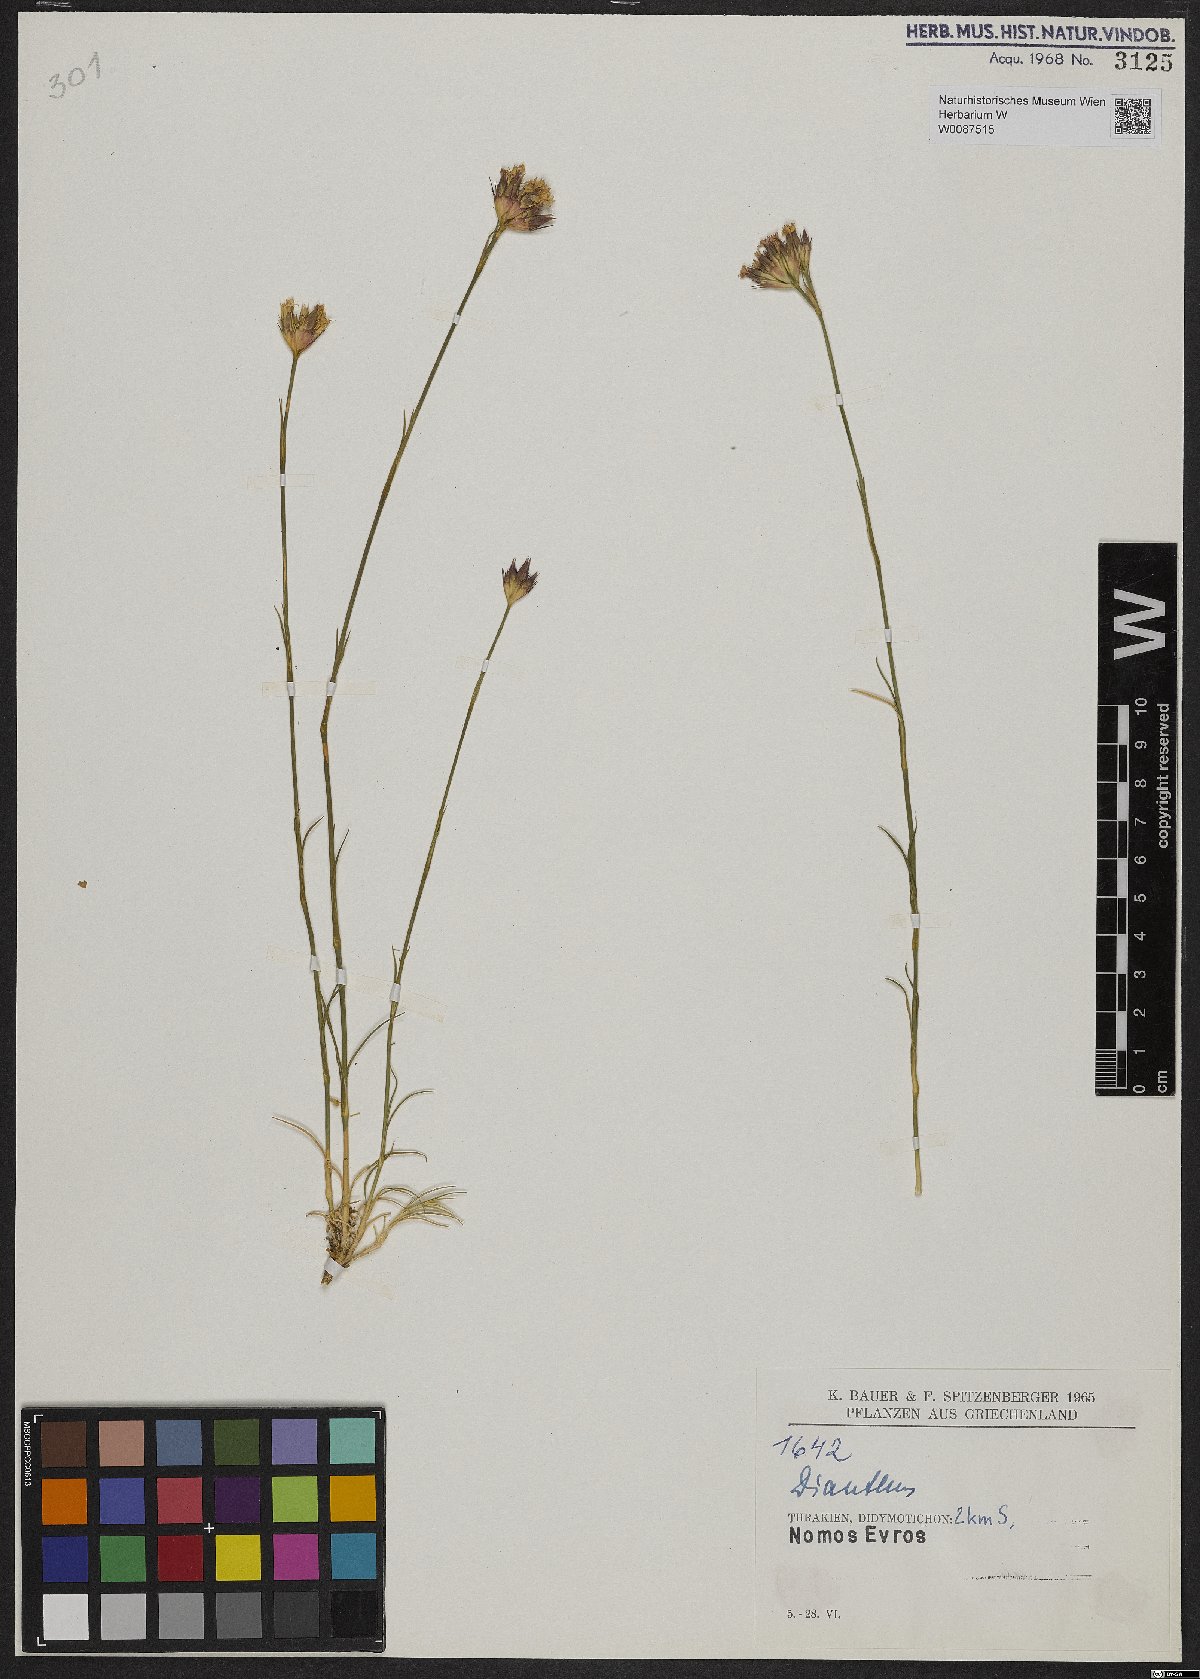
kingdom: Plantae
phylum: Tracheophyta
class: Magnoliopsida
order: Caryophyllales
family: Caryophyllaceae
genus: Dianthus
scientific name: Dianthus
